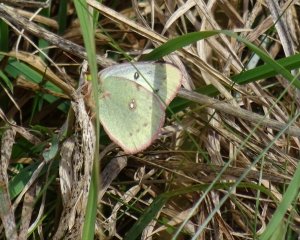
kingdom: Animalia
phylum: Arthropoda
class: Insecta
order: Lepidoptera
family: Pieridae
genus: Colias
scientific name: Colias philodice
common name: Clouded Sulphur
